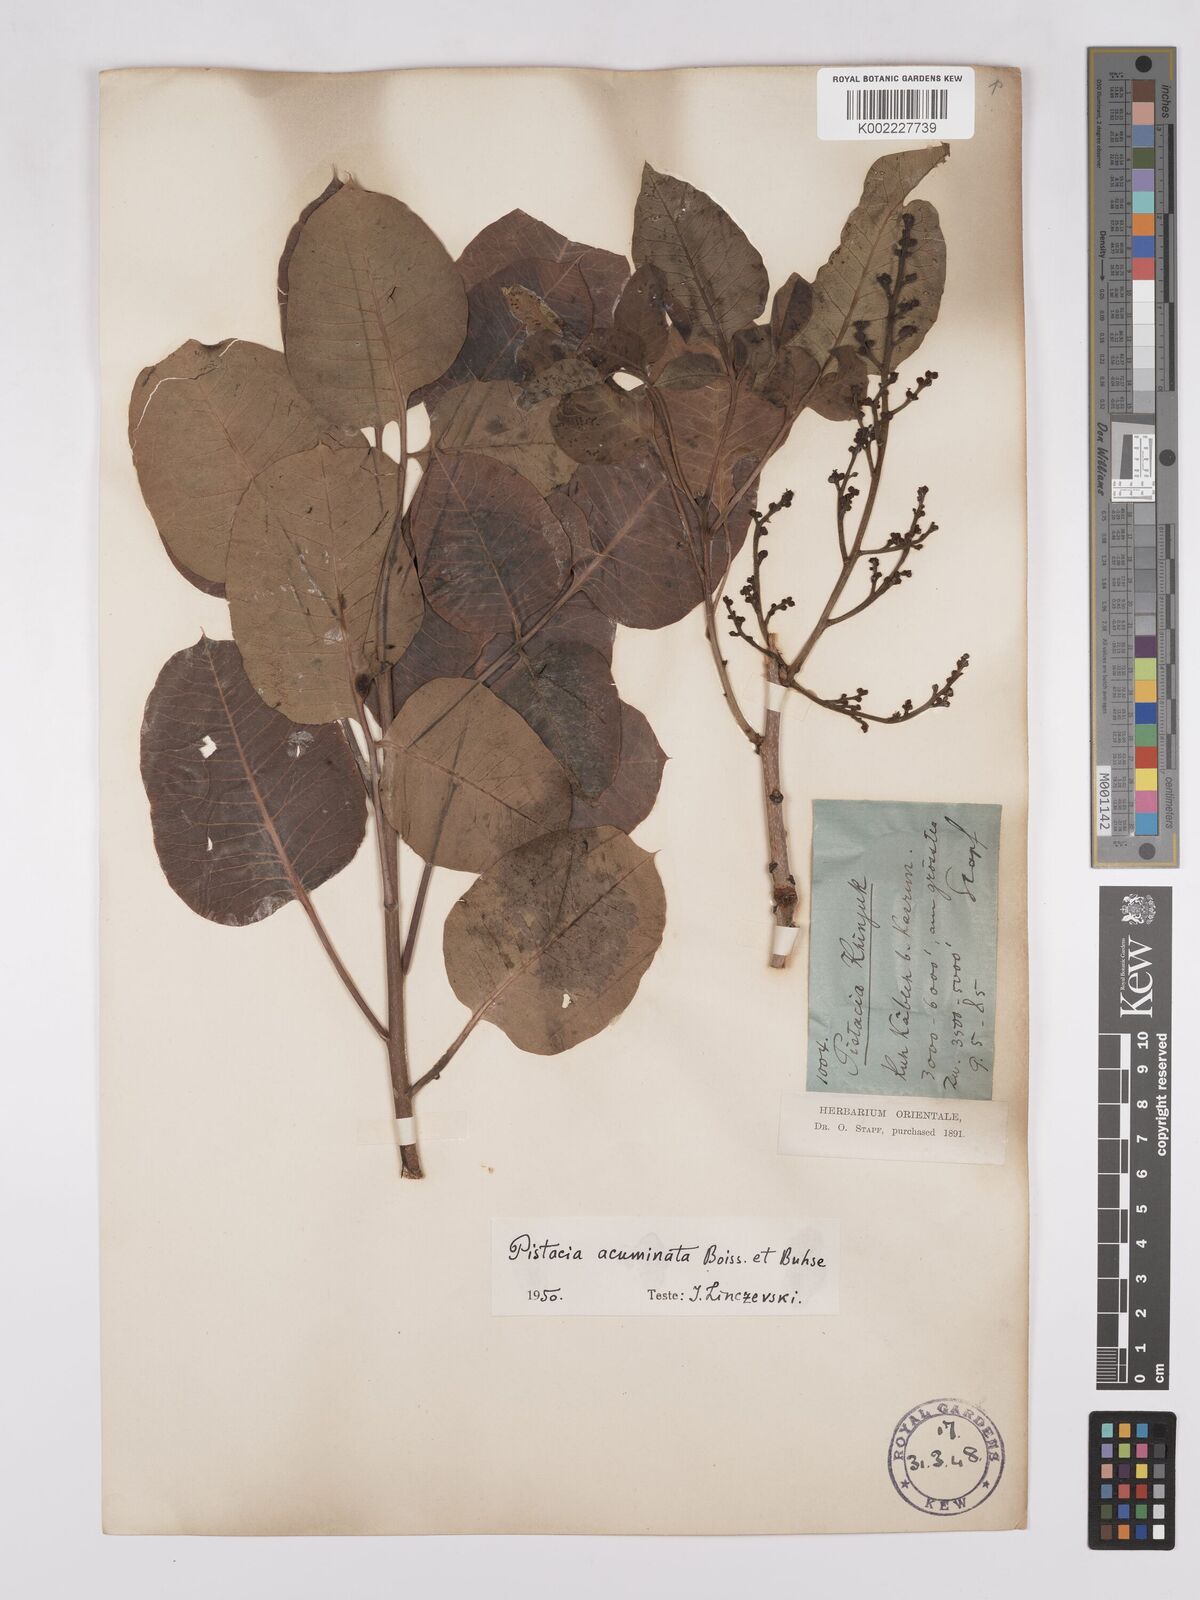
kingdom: Plantae
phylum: Tracheophyta
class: Magnoliopsida
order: Sapindales
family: Anacardiaceae
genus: Pistacia
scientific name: Pistacia khinjuk
